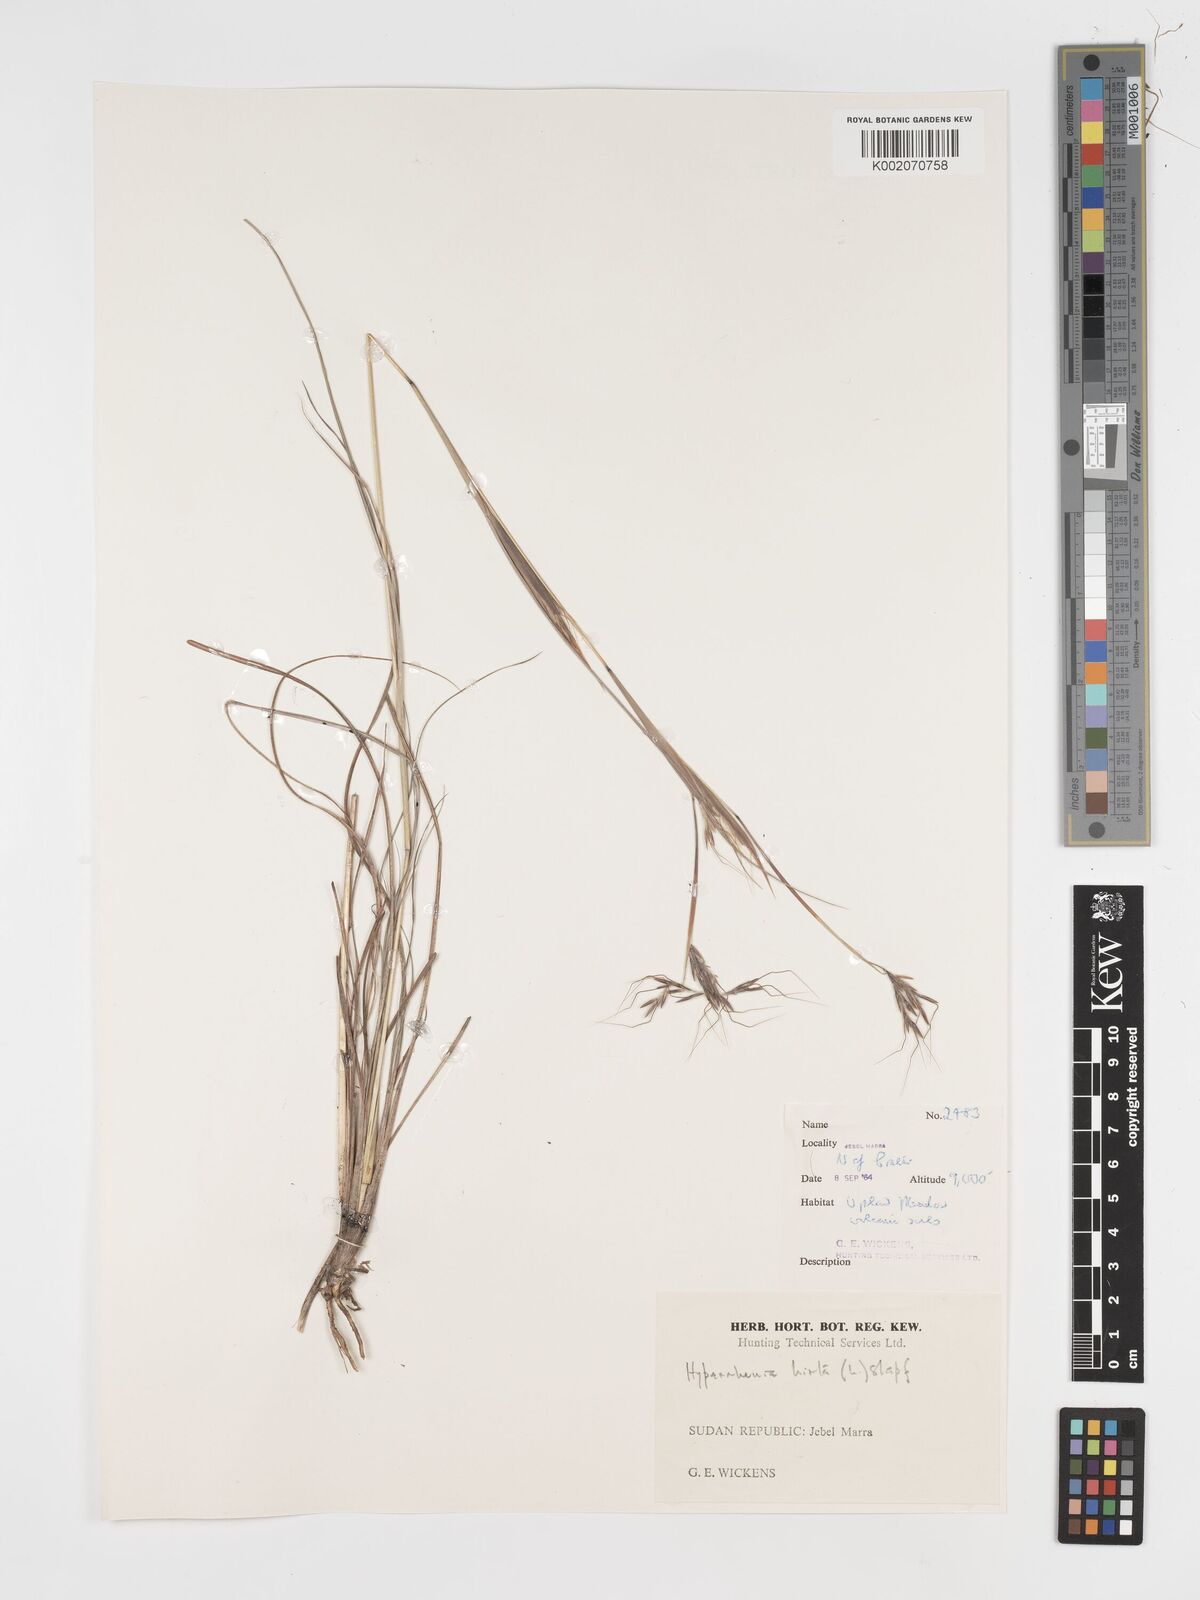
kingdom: Plantae
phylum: Tracheophyta
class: Liliopsida
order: Poales
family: Poaceae
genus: Hyparrhenia
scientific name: Hyparrhenia hirta
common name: Thatching grass
